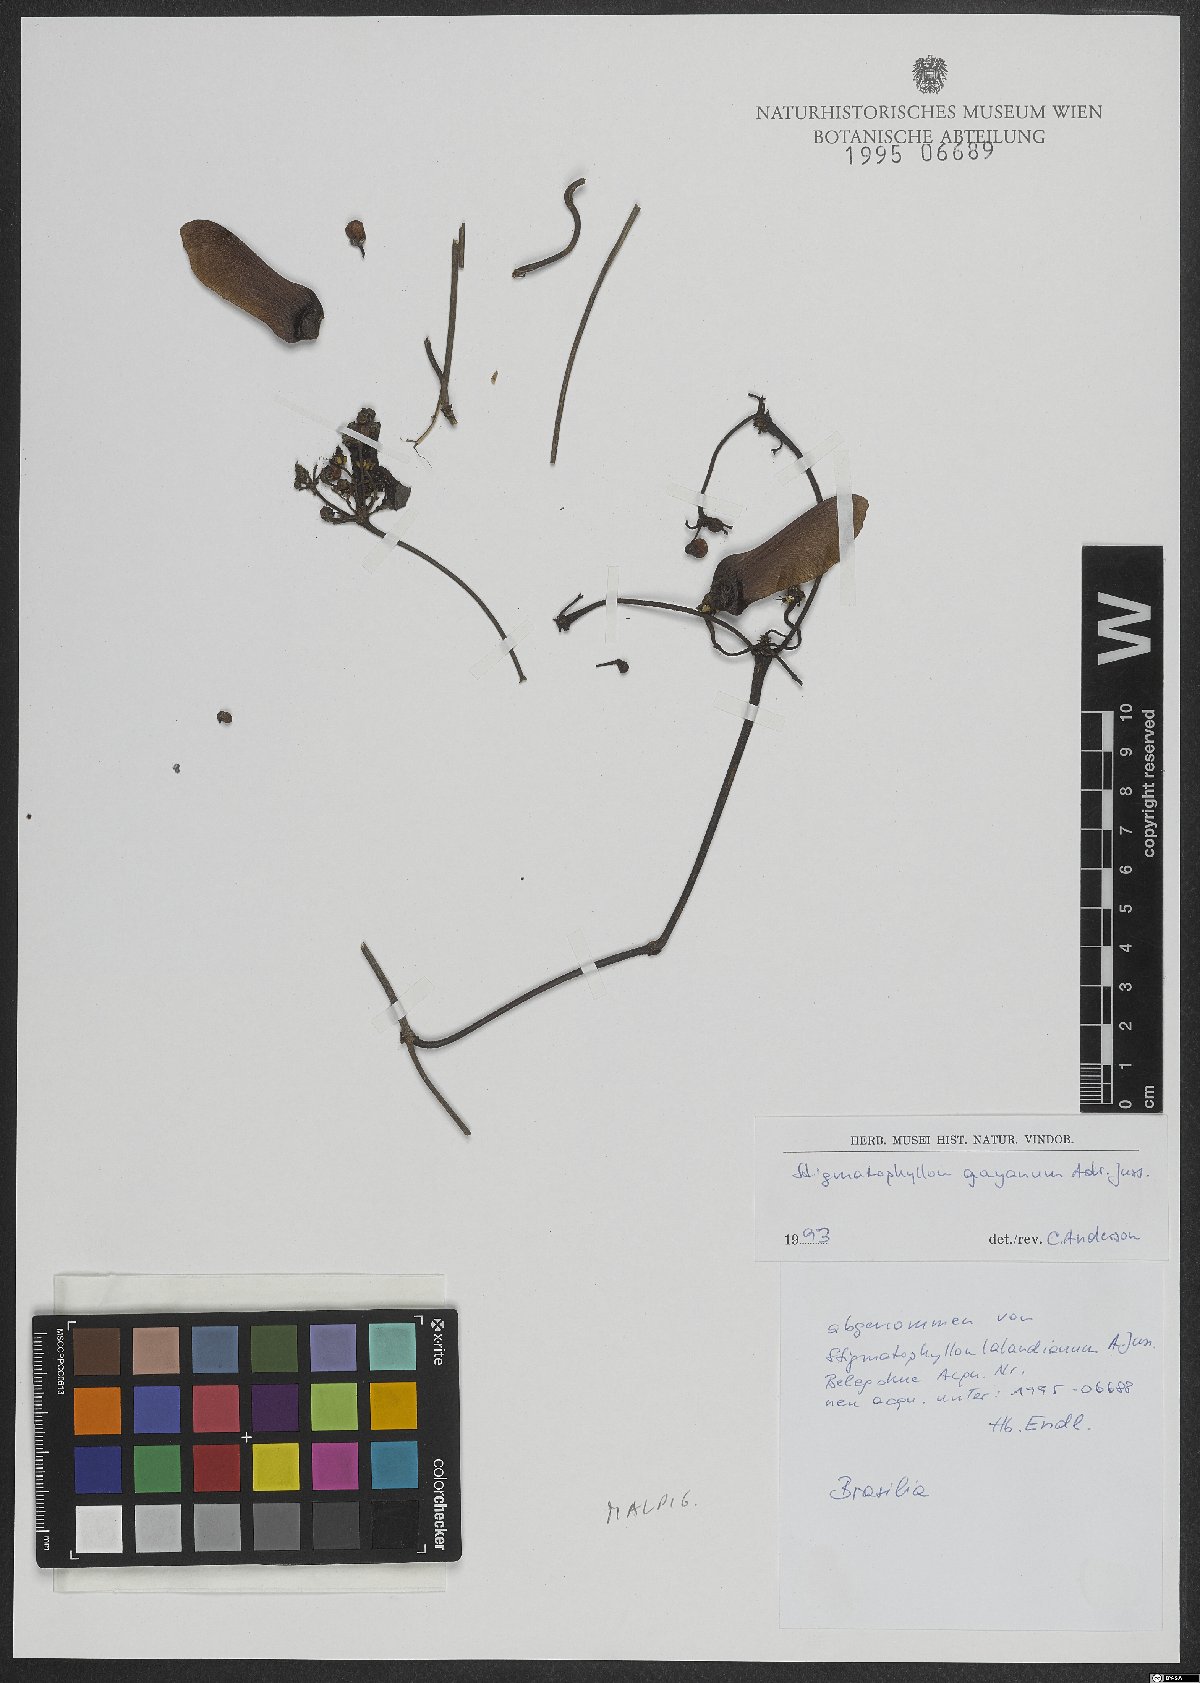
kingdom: Plantae
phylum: Tracheophyta
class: Magnoliopsida
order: Malpighiales
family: Malpighiaceae
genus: Stigmaphyllon
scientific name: Stigmaphyllon gayanum
